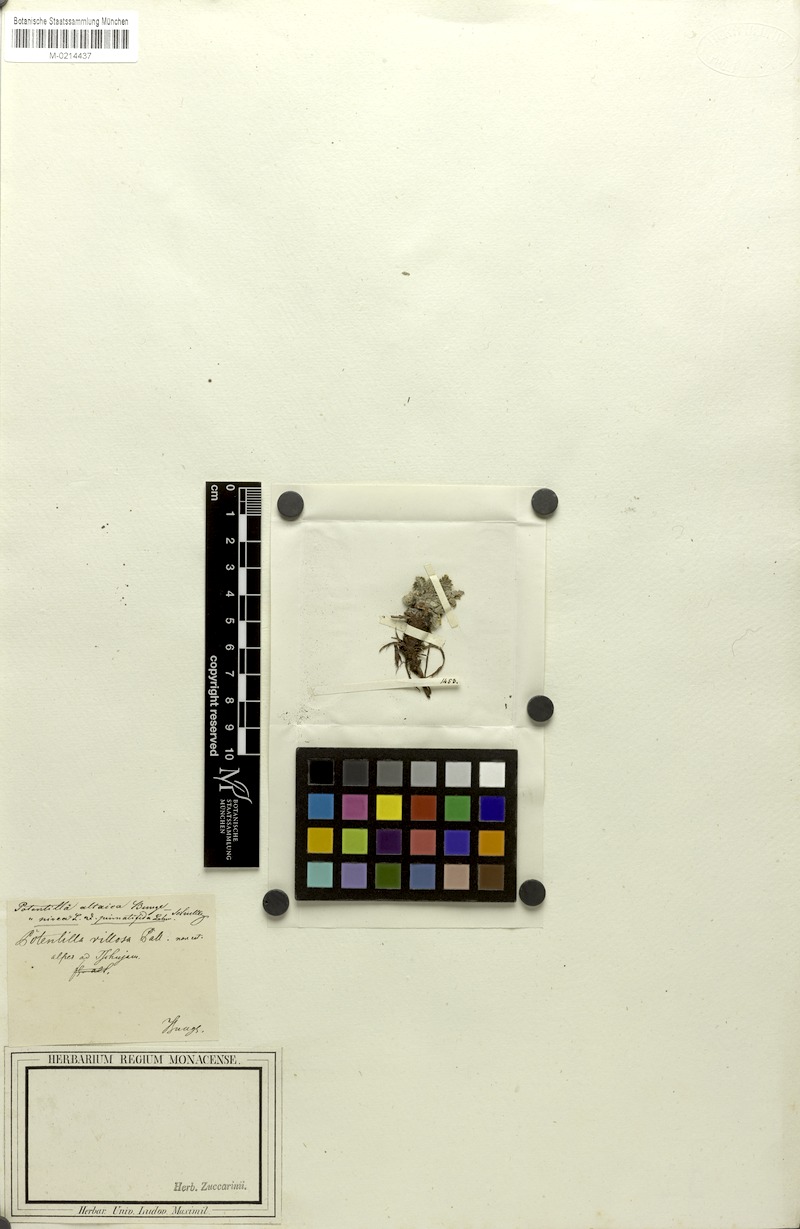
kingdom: Plantae
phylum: Tracheophyta
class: Magnoliopsida
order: Rosales
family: Rosaceae
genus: Potentilla
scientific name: Potentilla nivea
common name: Snow cinquefoil
